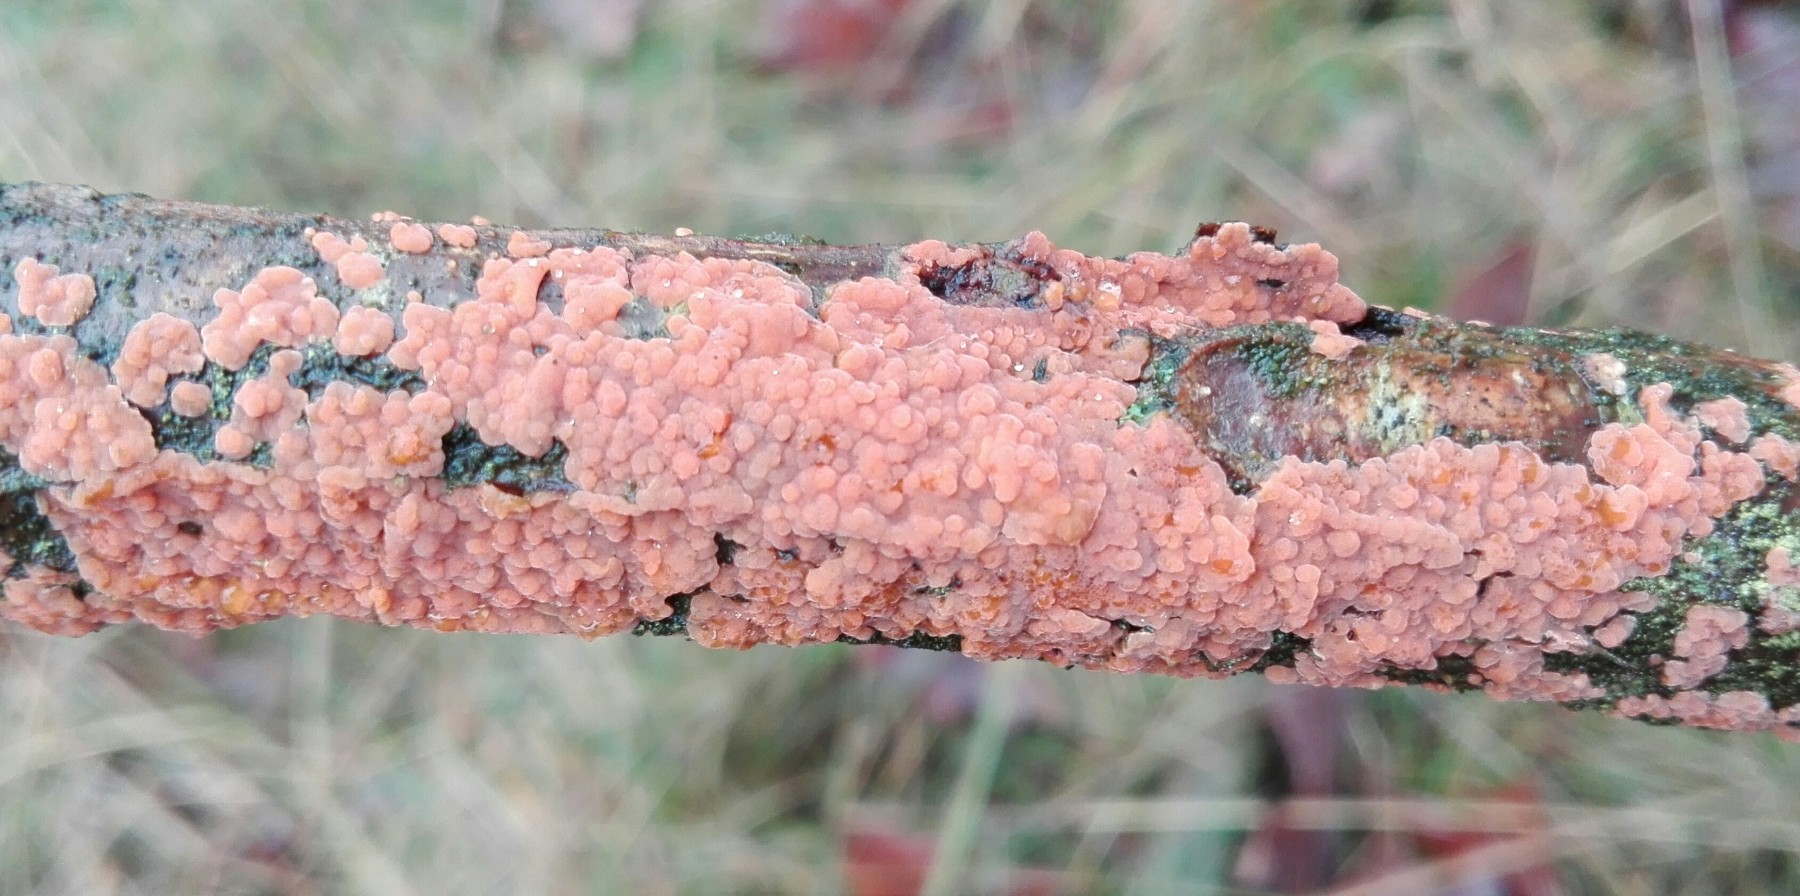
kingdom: Fungi
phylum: Basidiomycota
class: Agaricomycetes
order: Russulales
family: Peniophoraceae
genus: Peniophora
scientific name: Peniophora incarnata
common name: laksefarvet voksskind
